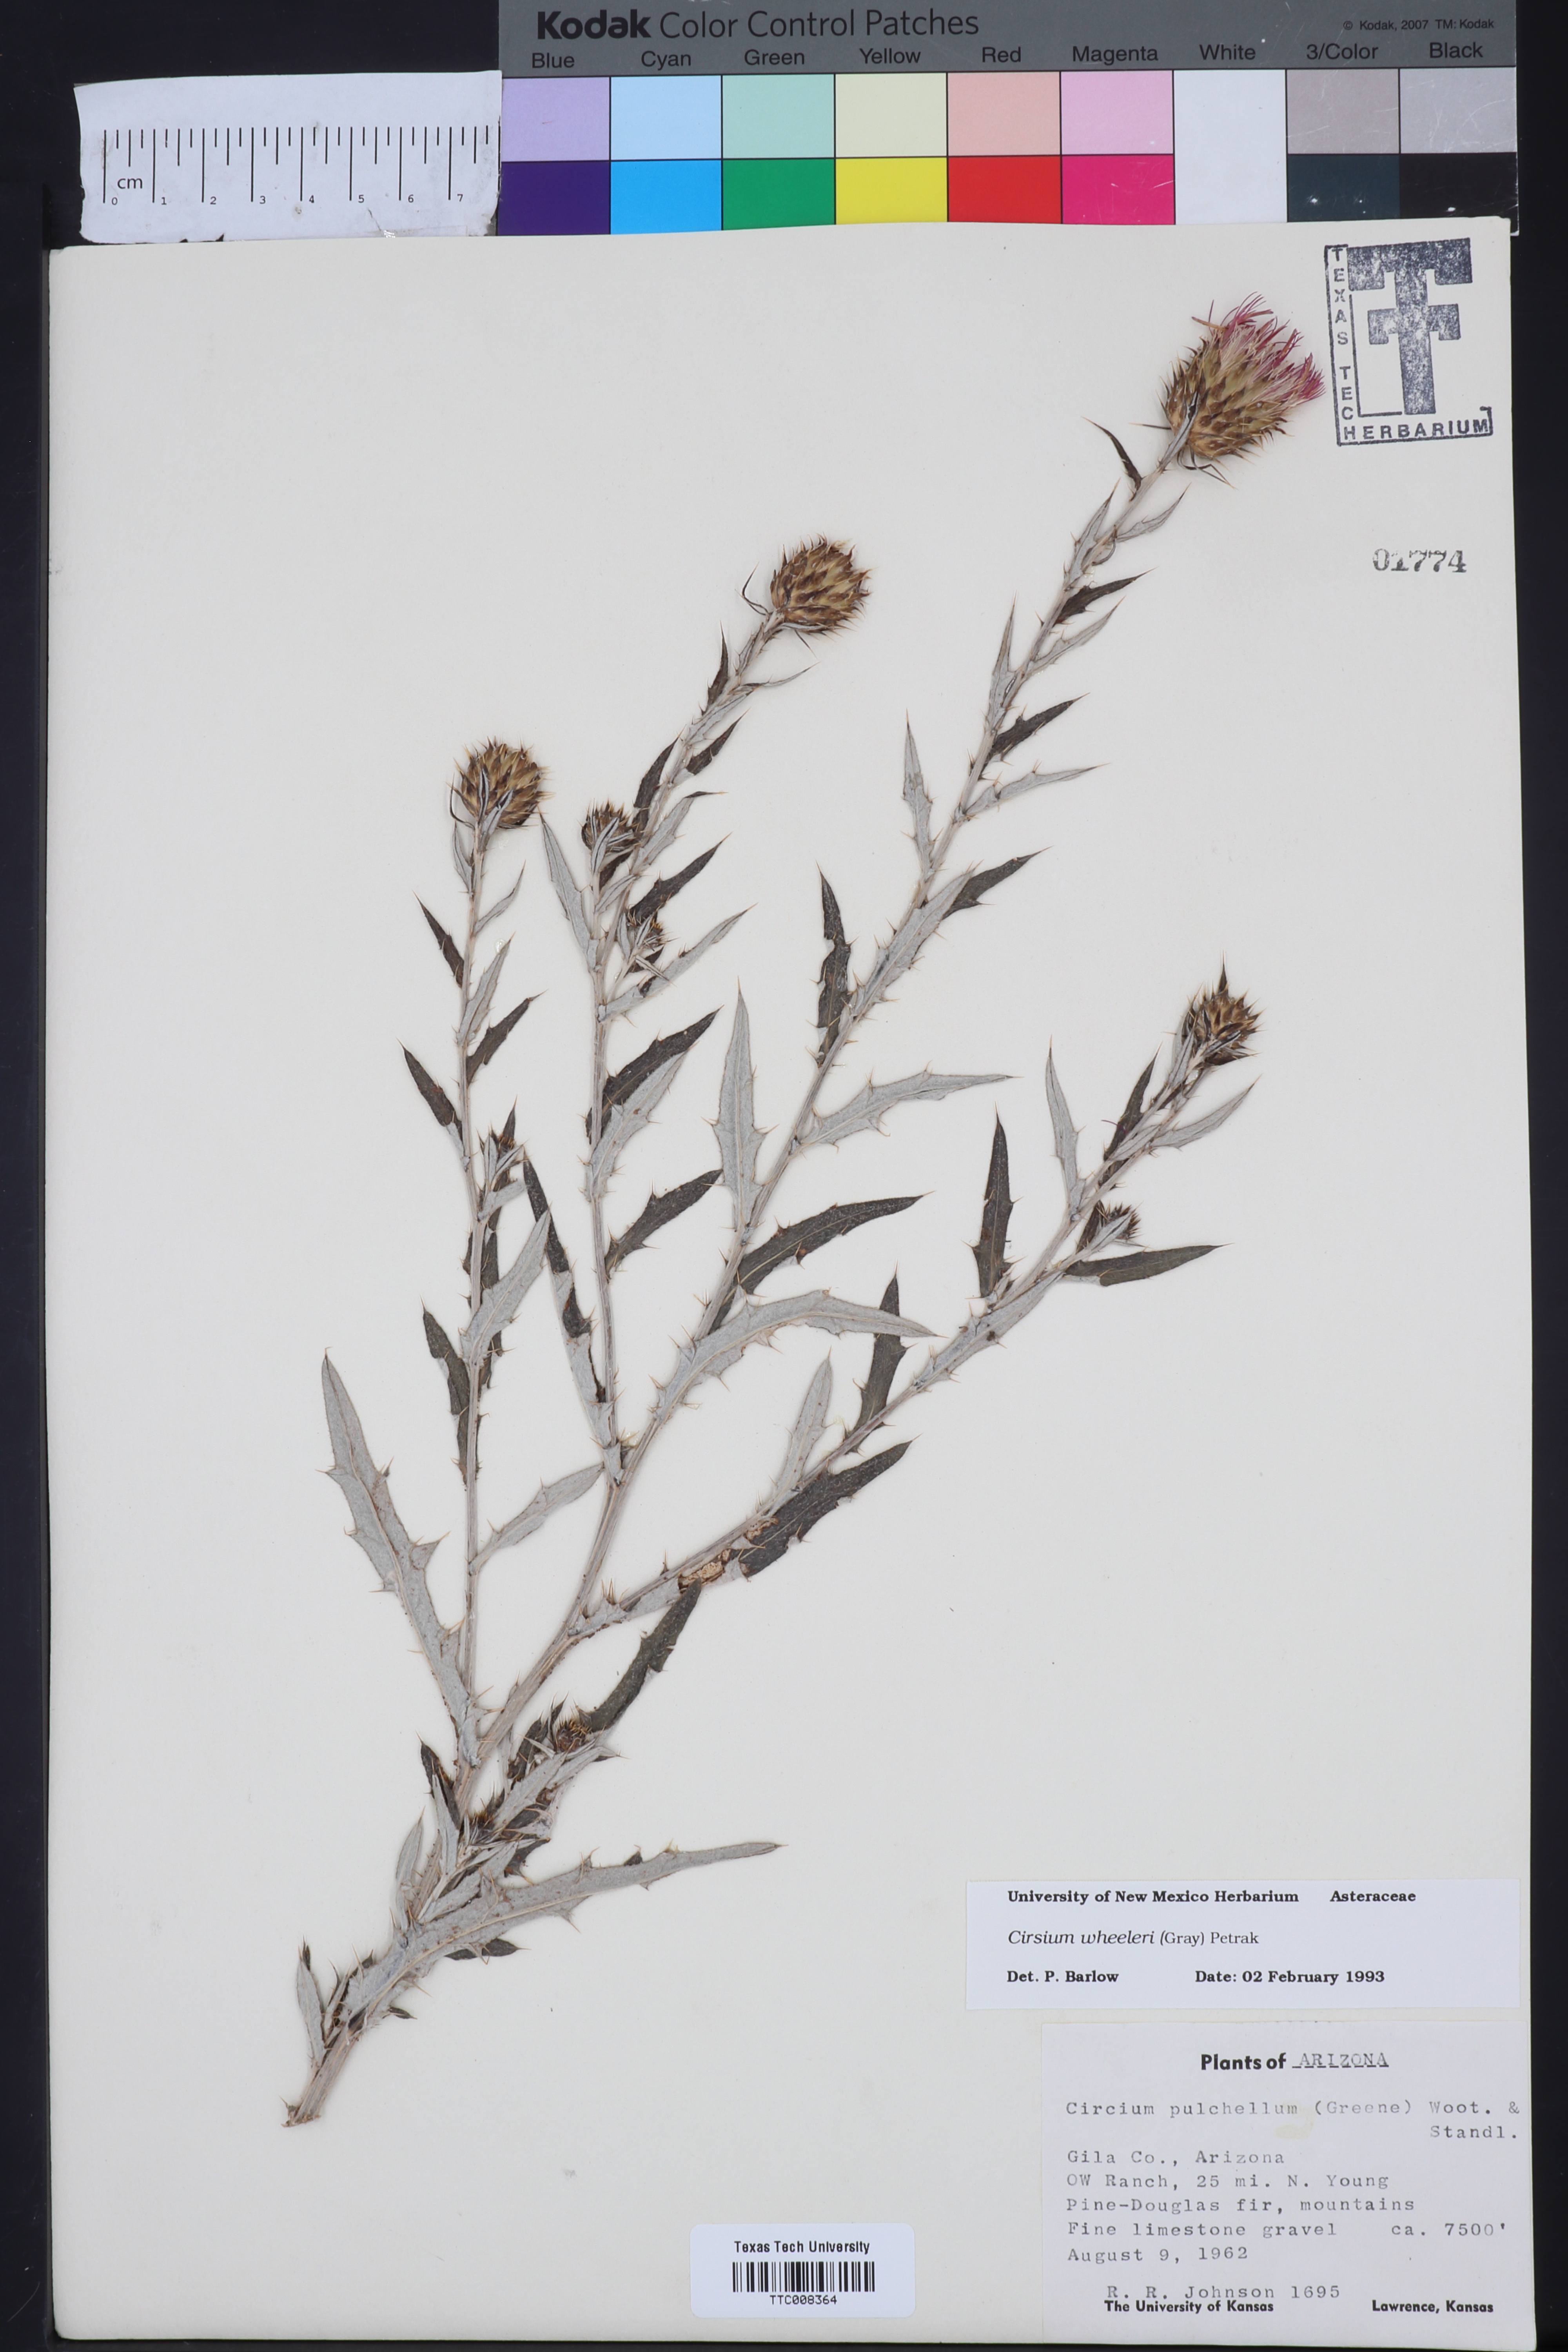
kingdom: Plantae
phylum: Tracheophyta
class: Magnoliopsida
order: Asterales
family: Asteraceae
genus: Cirsium
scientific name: Cirsium wheeleri
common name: Wheeler's thistle
